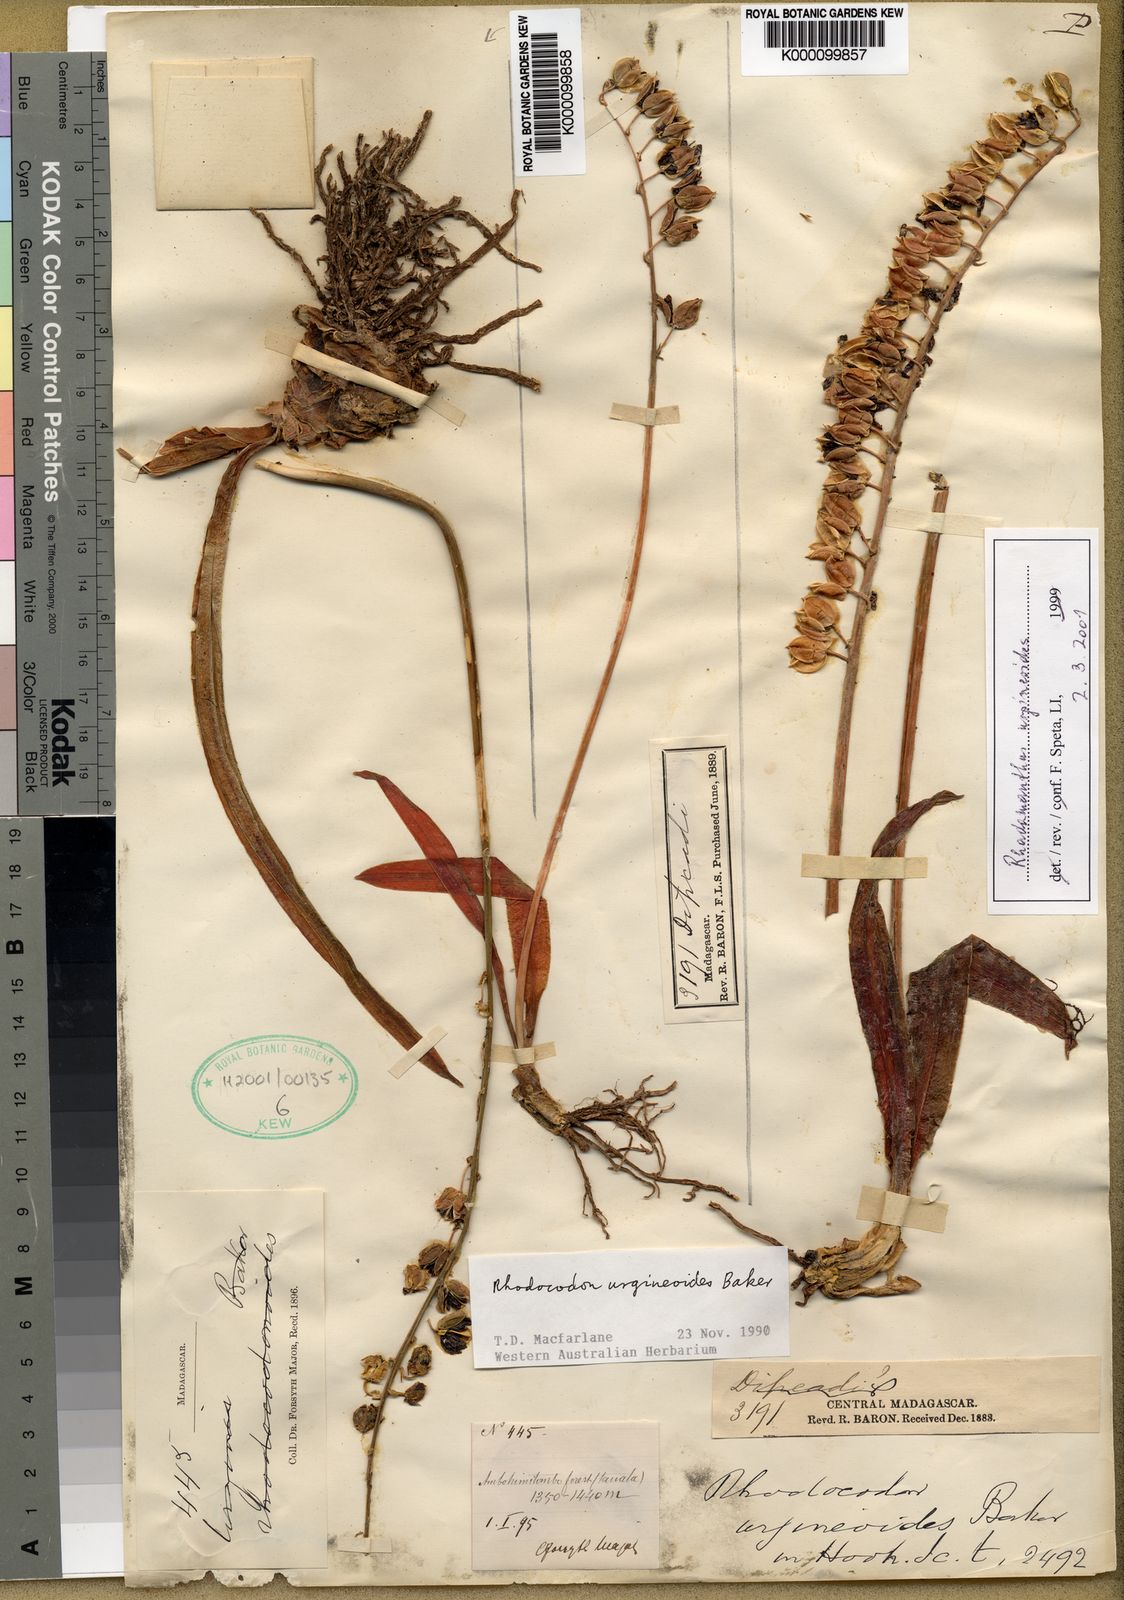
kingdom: Plantae
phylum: Tracheophyta
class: Liliopsida
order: Asparagales
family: Asparagaceae
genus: Drimia
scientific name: Drimia urgineoides
